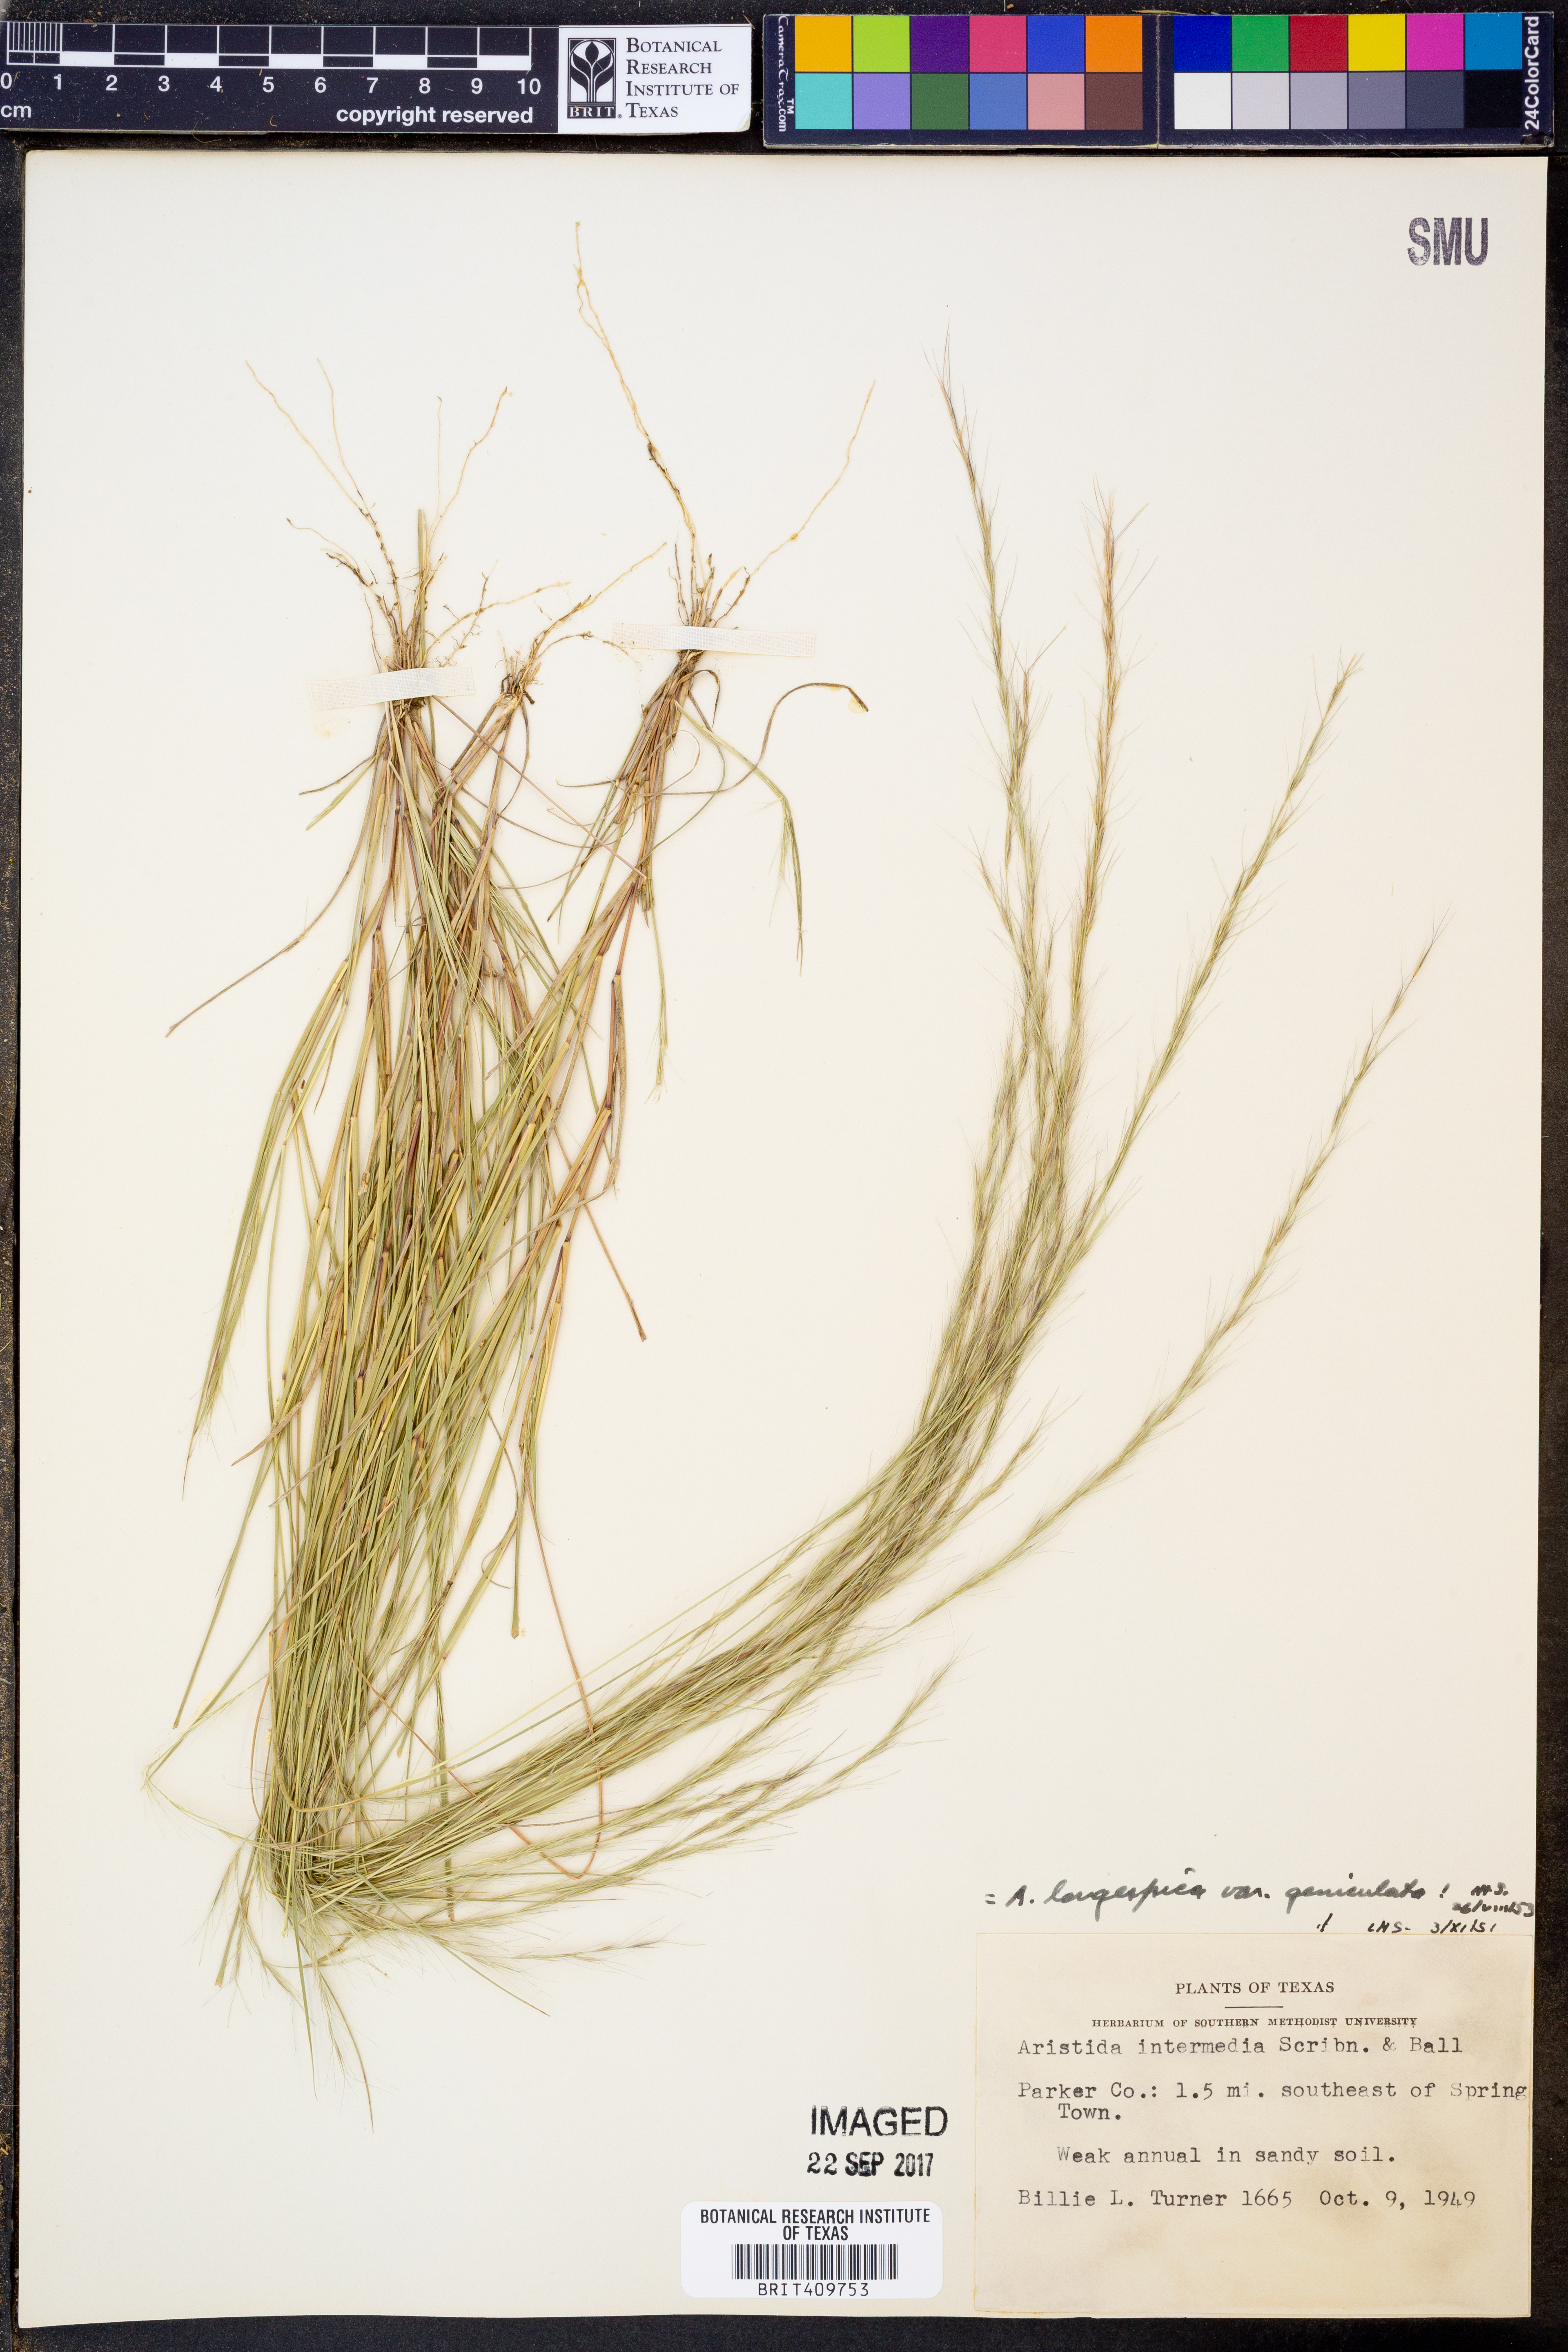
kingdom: Plantae
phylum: Tracheophyta
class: Liliopsida
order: Poales
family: Poaceae
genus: Aristida
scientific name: Aristida longespica
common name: Long-spiked triple-awned grass
